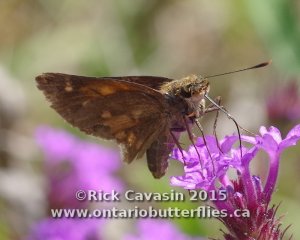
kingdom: Animalia
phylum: Arthropoda
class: Insecta
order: Lepidoptera
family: Hesperiidae
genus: Poanes
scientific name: Poanes viator
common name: Broad-winged Skipper
